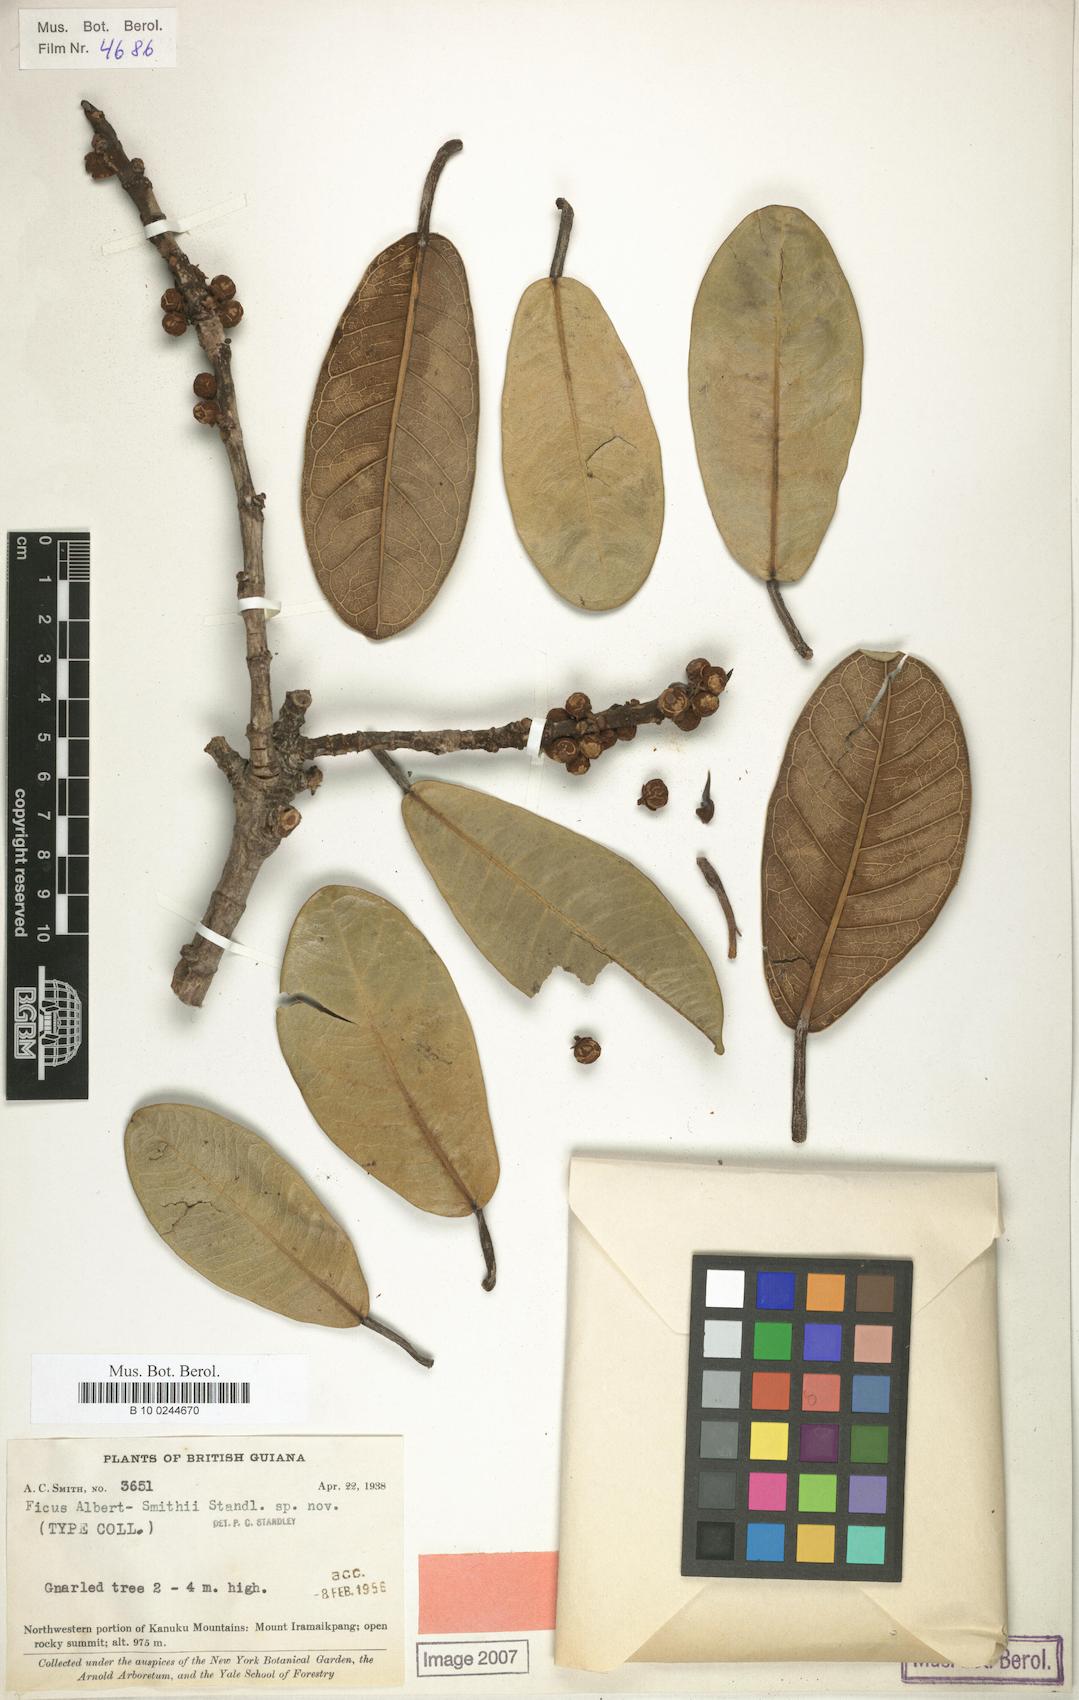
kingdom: Plantae
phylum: Tracheophyta
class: Magnoliopsida
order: Rosales
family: Moraceae
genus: Ficus
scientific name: Ficus albert-smithii
